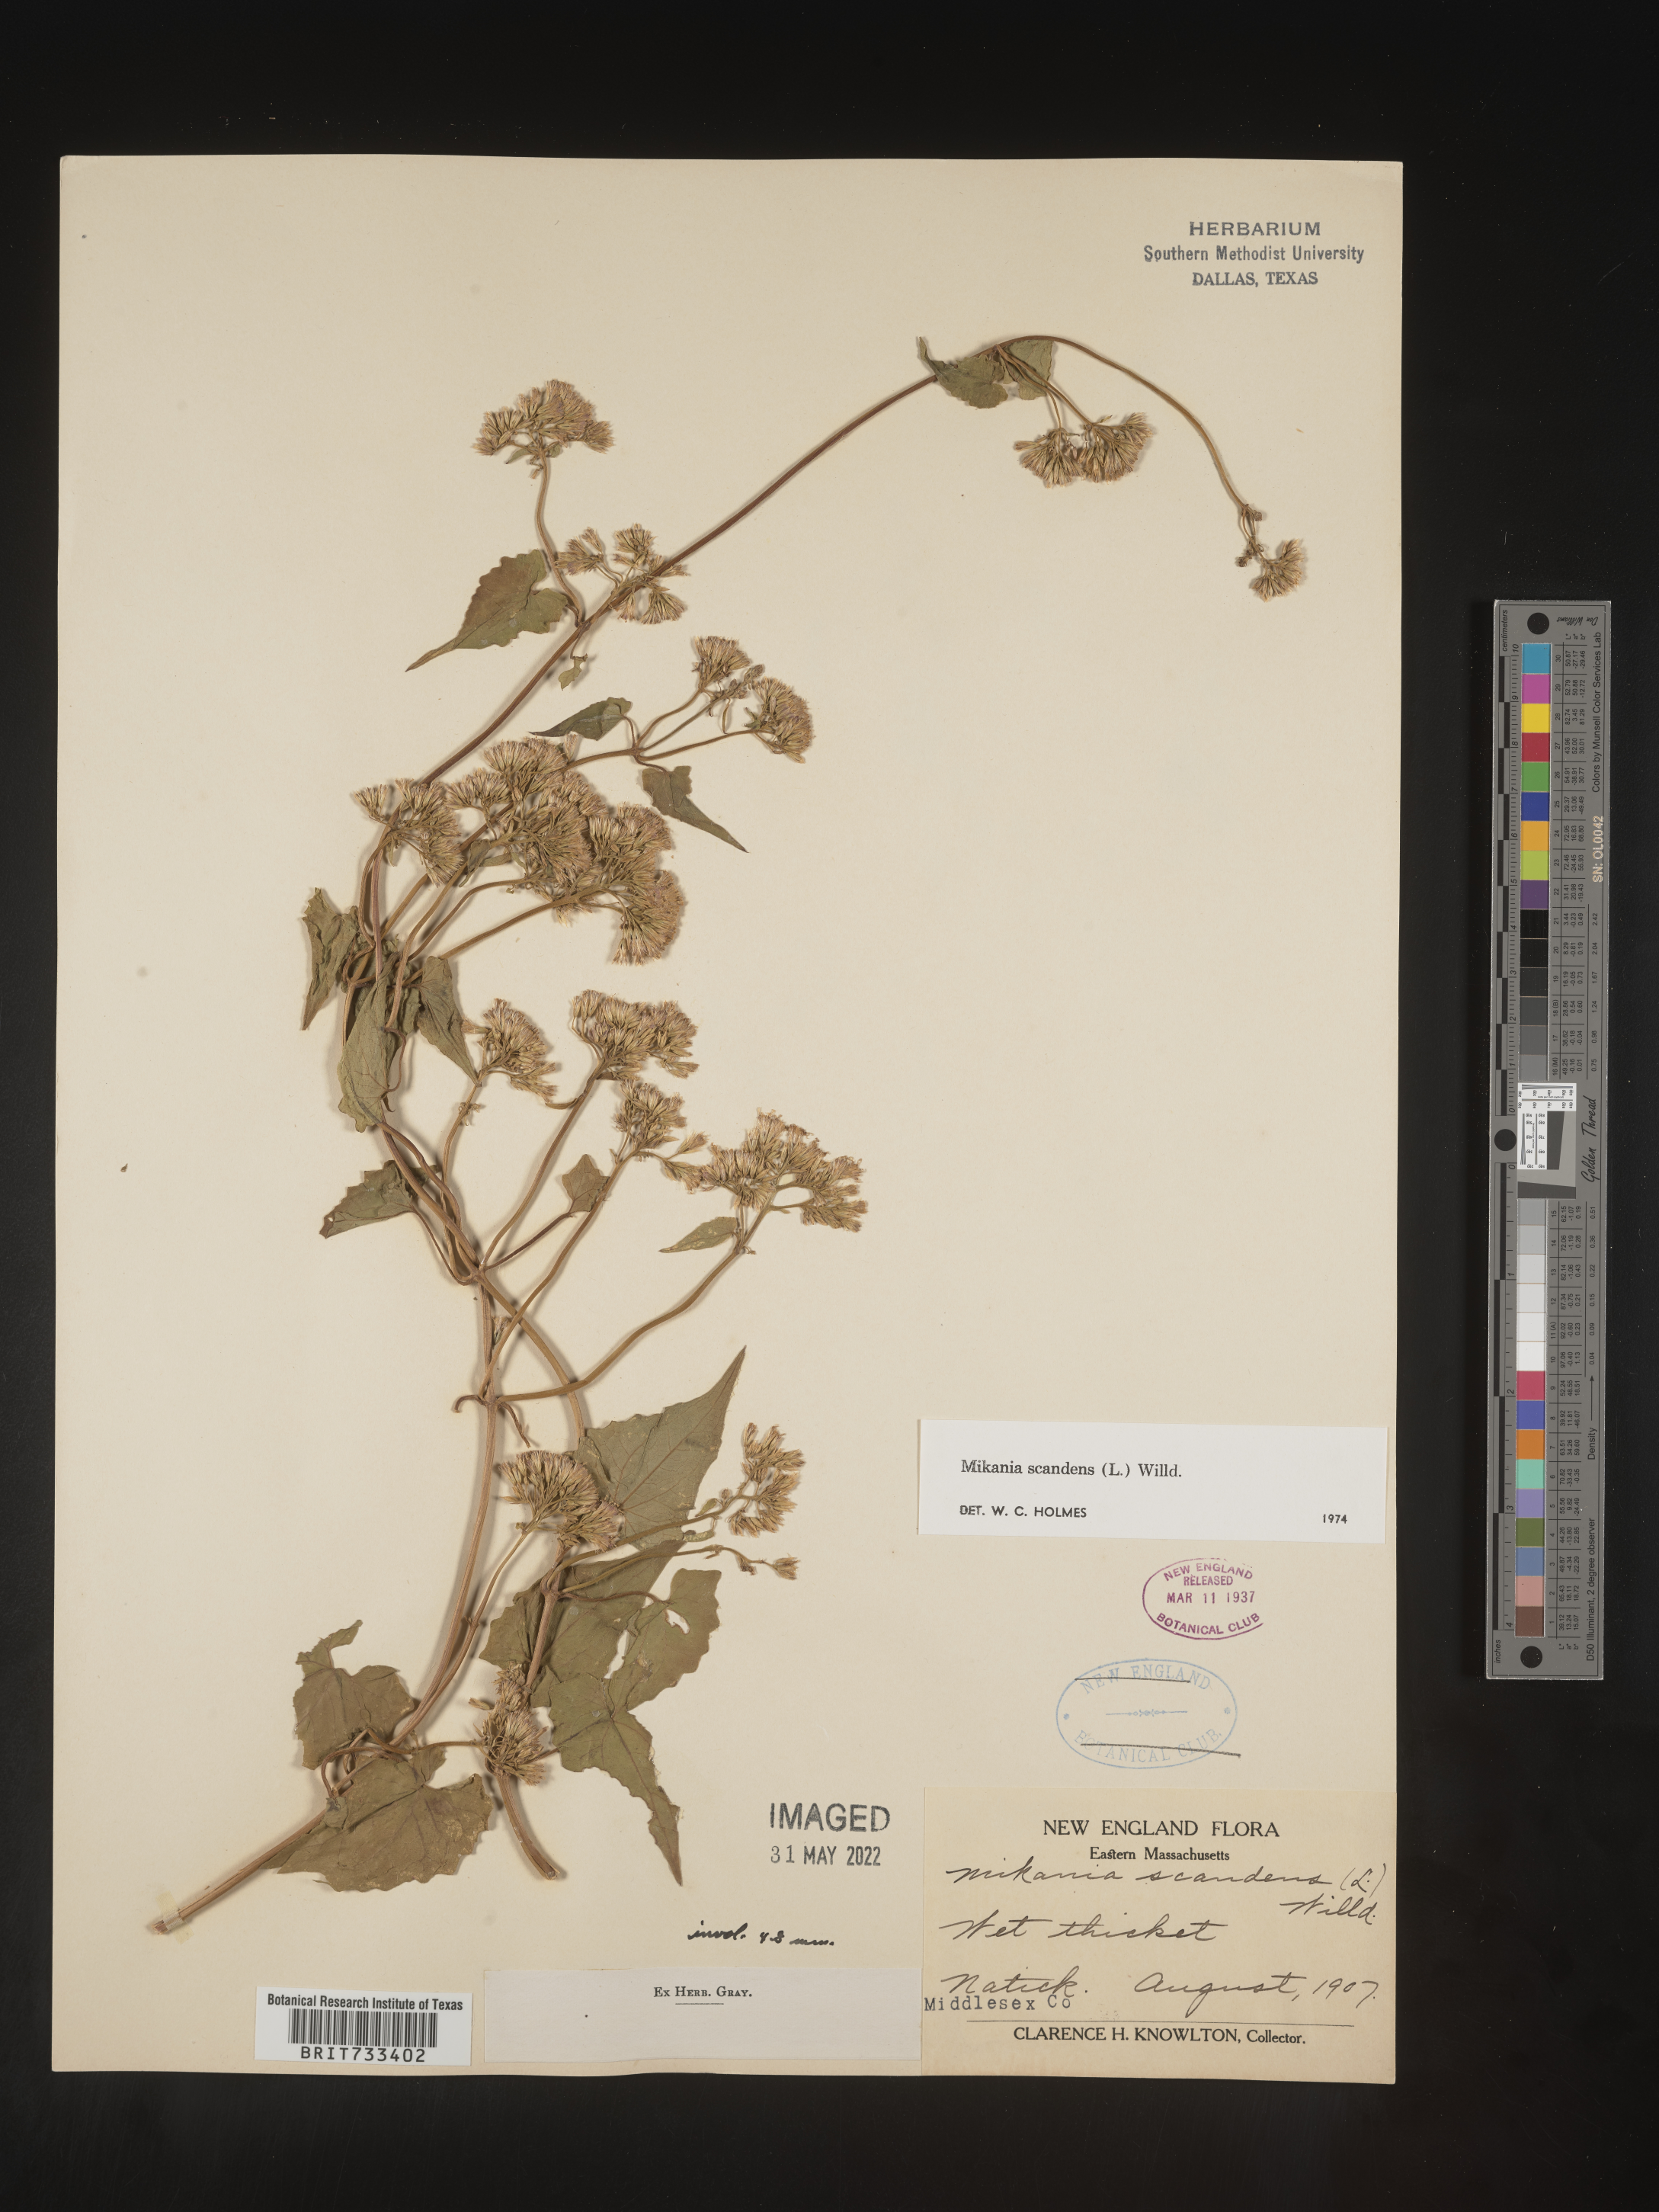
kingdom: Plantae
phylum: Tracheophyta
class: Magnoliopsida
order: Asterales
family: Asteraceae
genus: Mikania
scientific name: Mikania scandens
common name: Climbing hempvine
